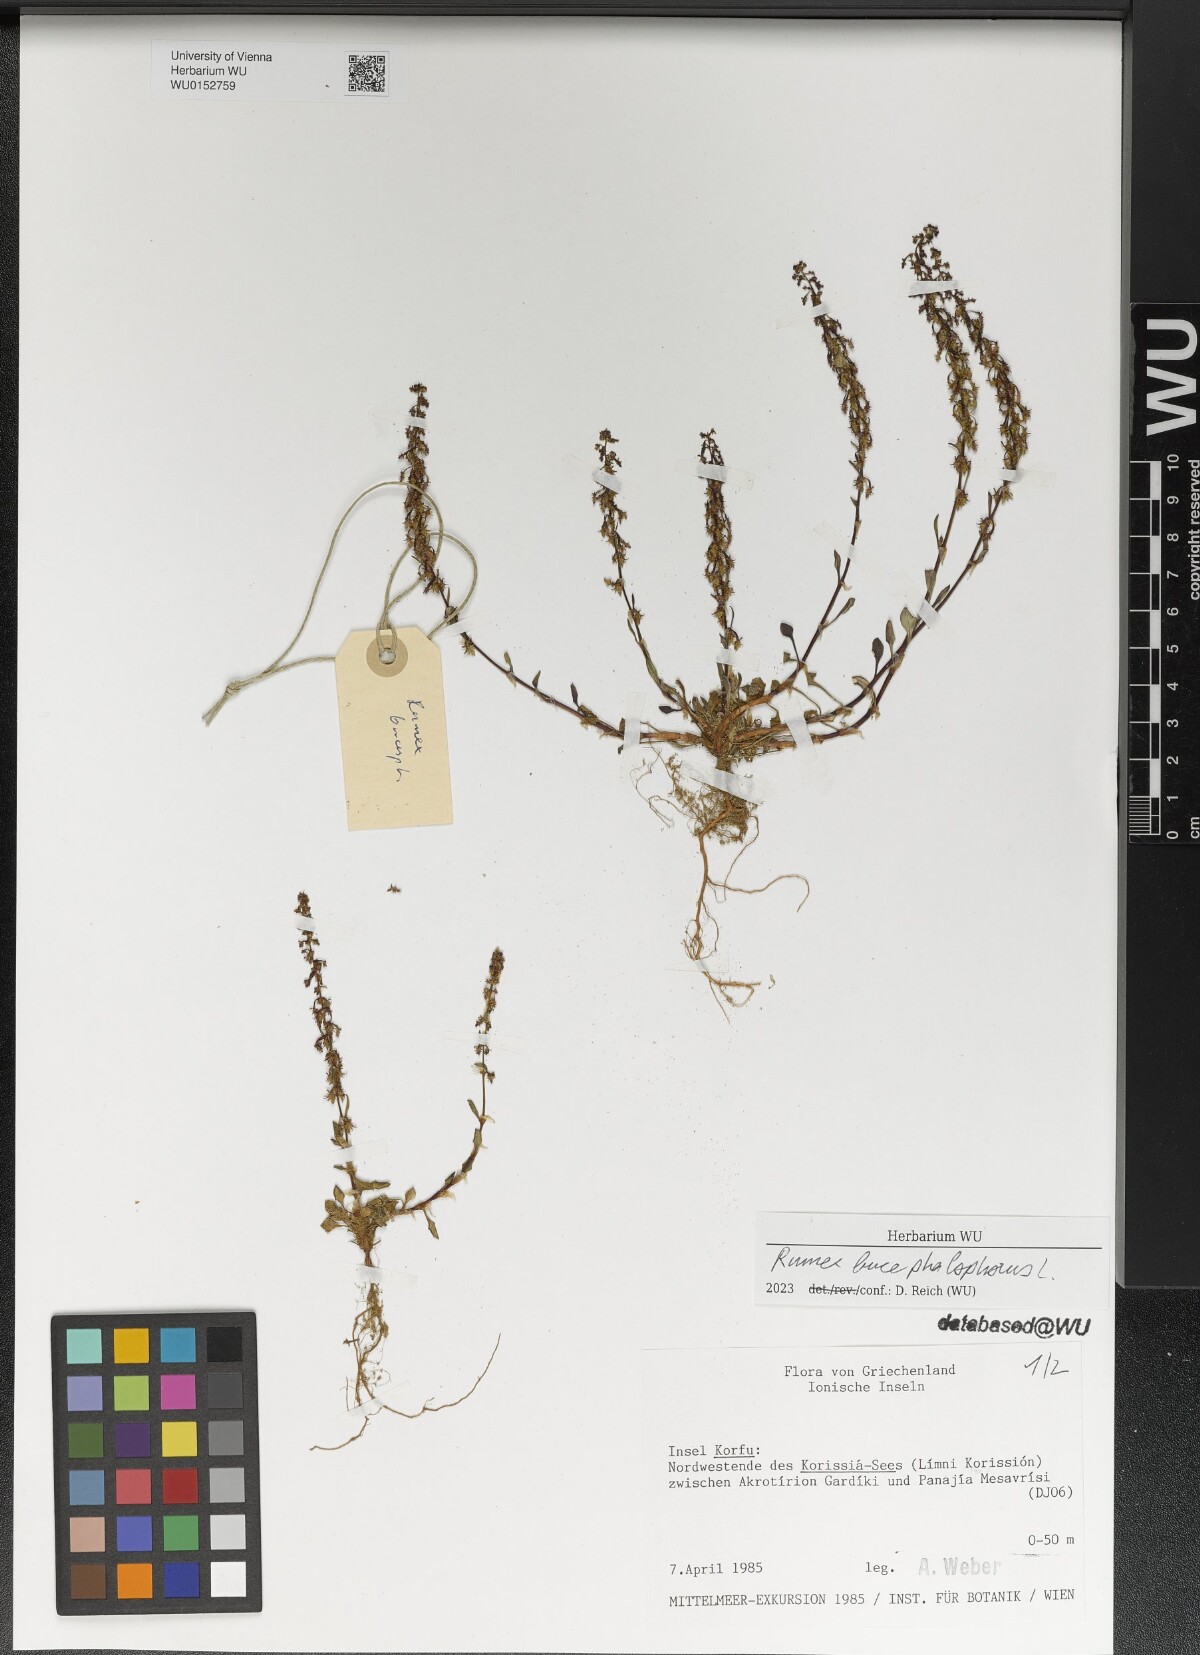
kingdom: Plantae
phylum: Tracheophyta
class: Magnoliopsida
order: Caryophyllales
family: Polygonaceae
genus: Rumex
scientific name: Rumex bucephalophorus
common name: Red dock
